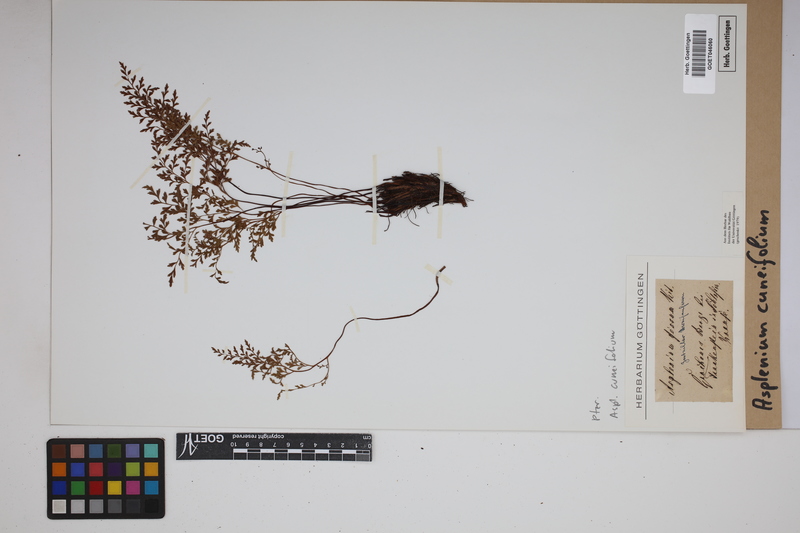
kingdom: Plantae
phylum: Tracheophyta
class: Polypodiopsida
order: Polypodiales
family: Aspleniaceae
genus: Asplenium
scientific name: Asplenium cuneifolium
